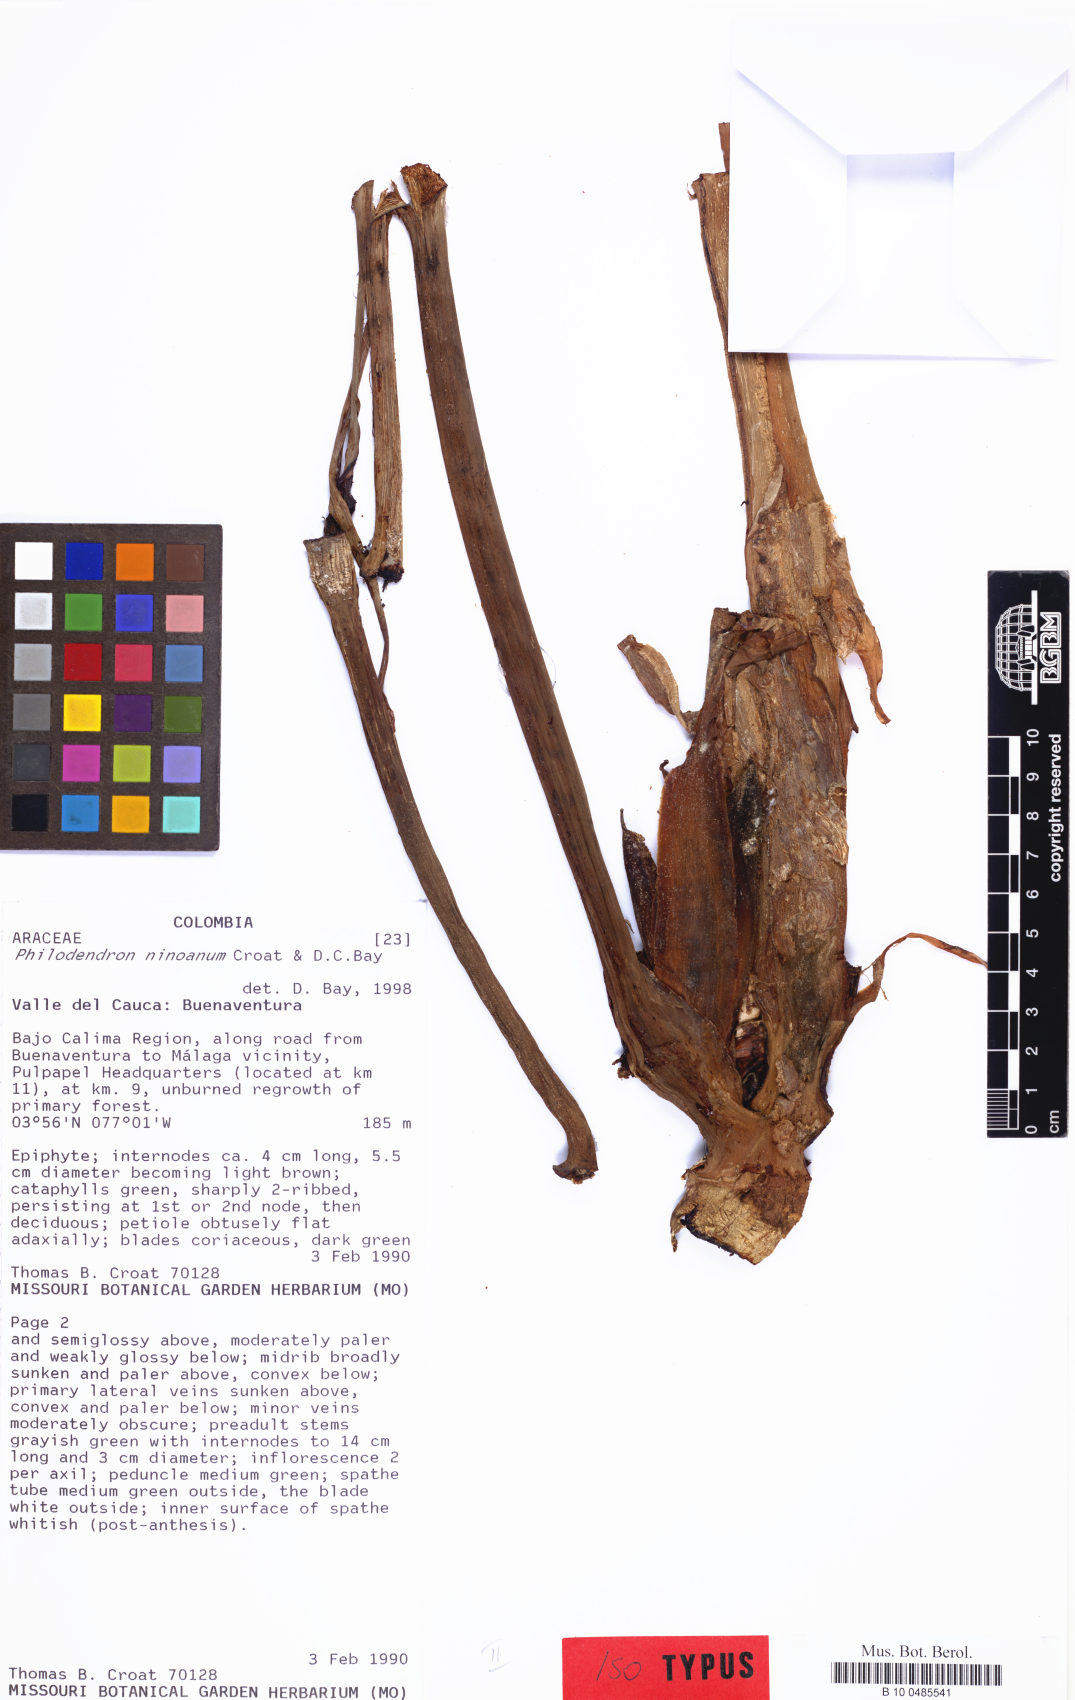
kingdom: Plantae
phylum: Tracheophyta
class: Liliopsida
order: Alismatales
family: Araceae
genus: Philodendron
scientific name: Philodendron ninoanum
